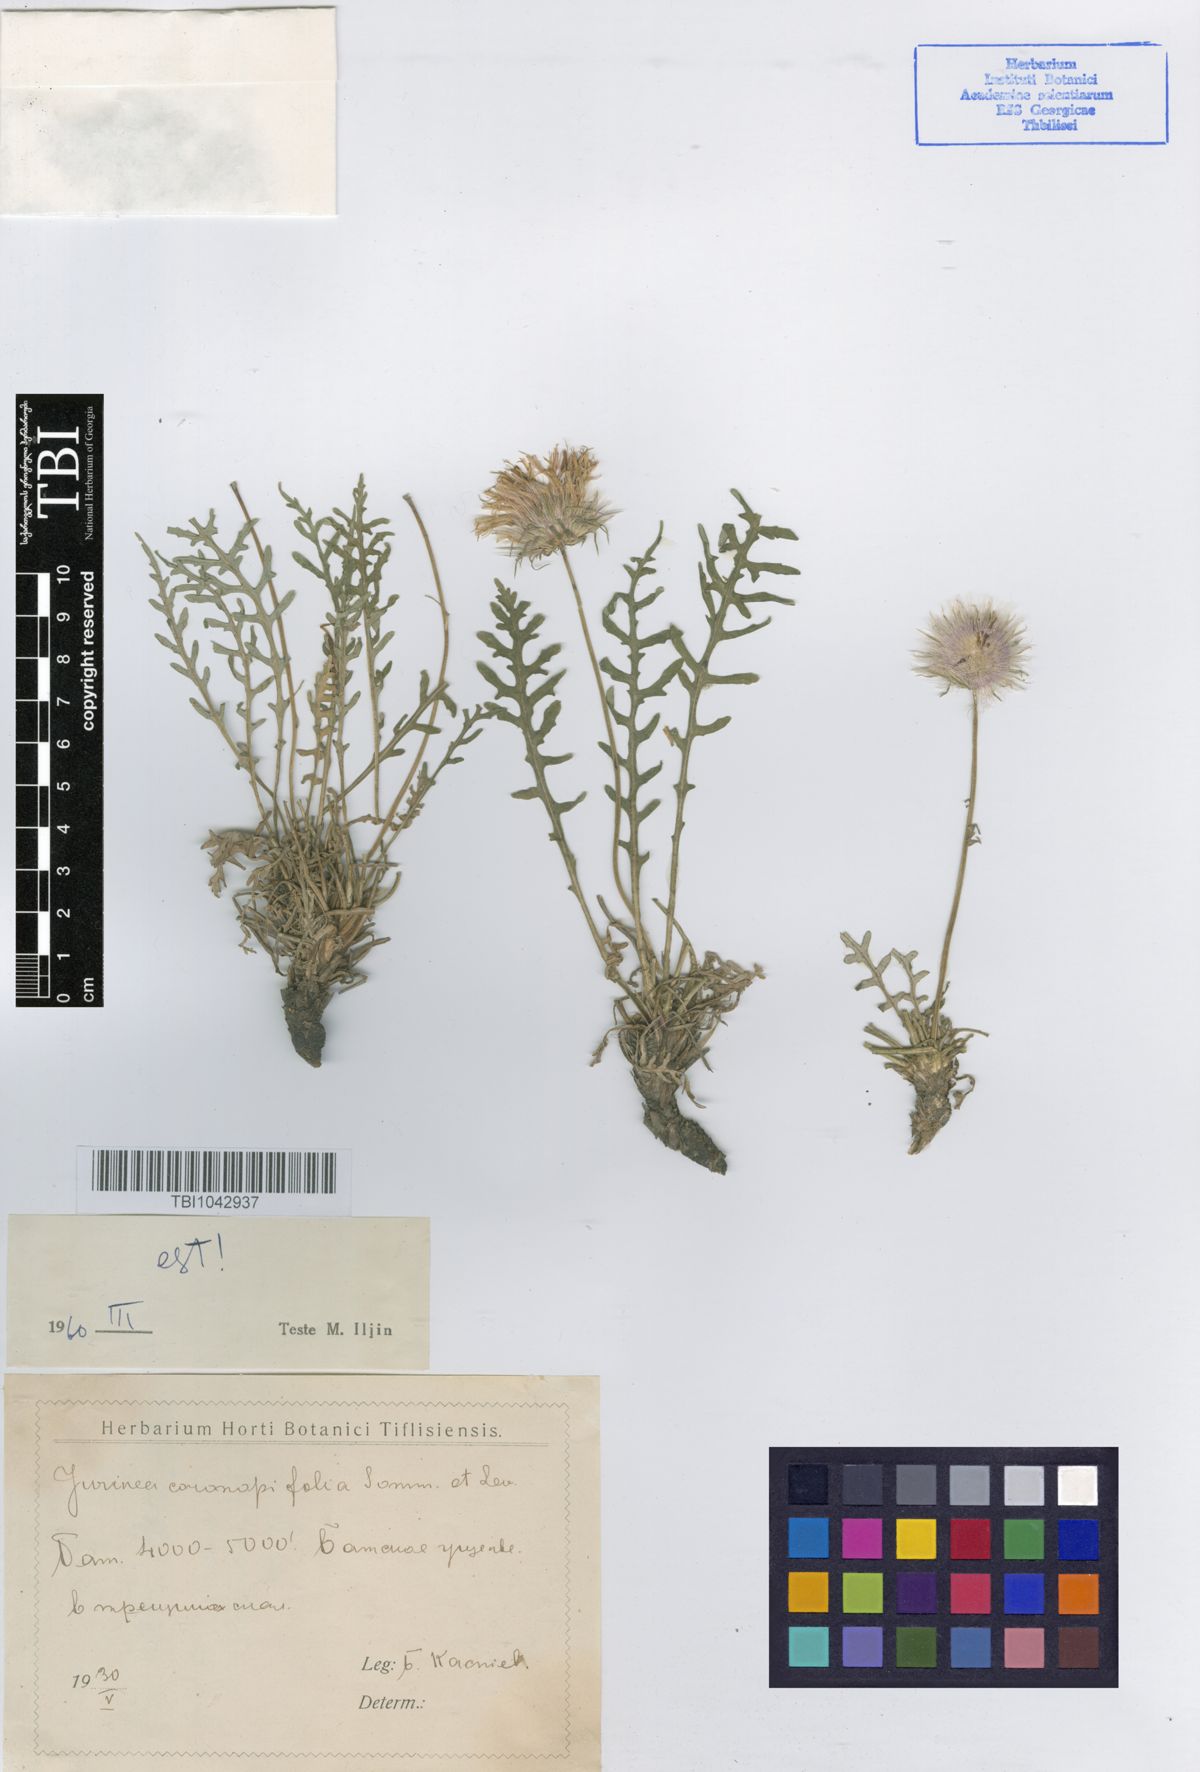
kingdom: Plantae
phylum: Tracheophyta
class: Magnoliopsida
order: Asterales
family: Asteraceae
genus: Jurinea
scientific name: Jurinea coronopifolia
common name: Wart-cress-leaved jurinea
